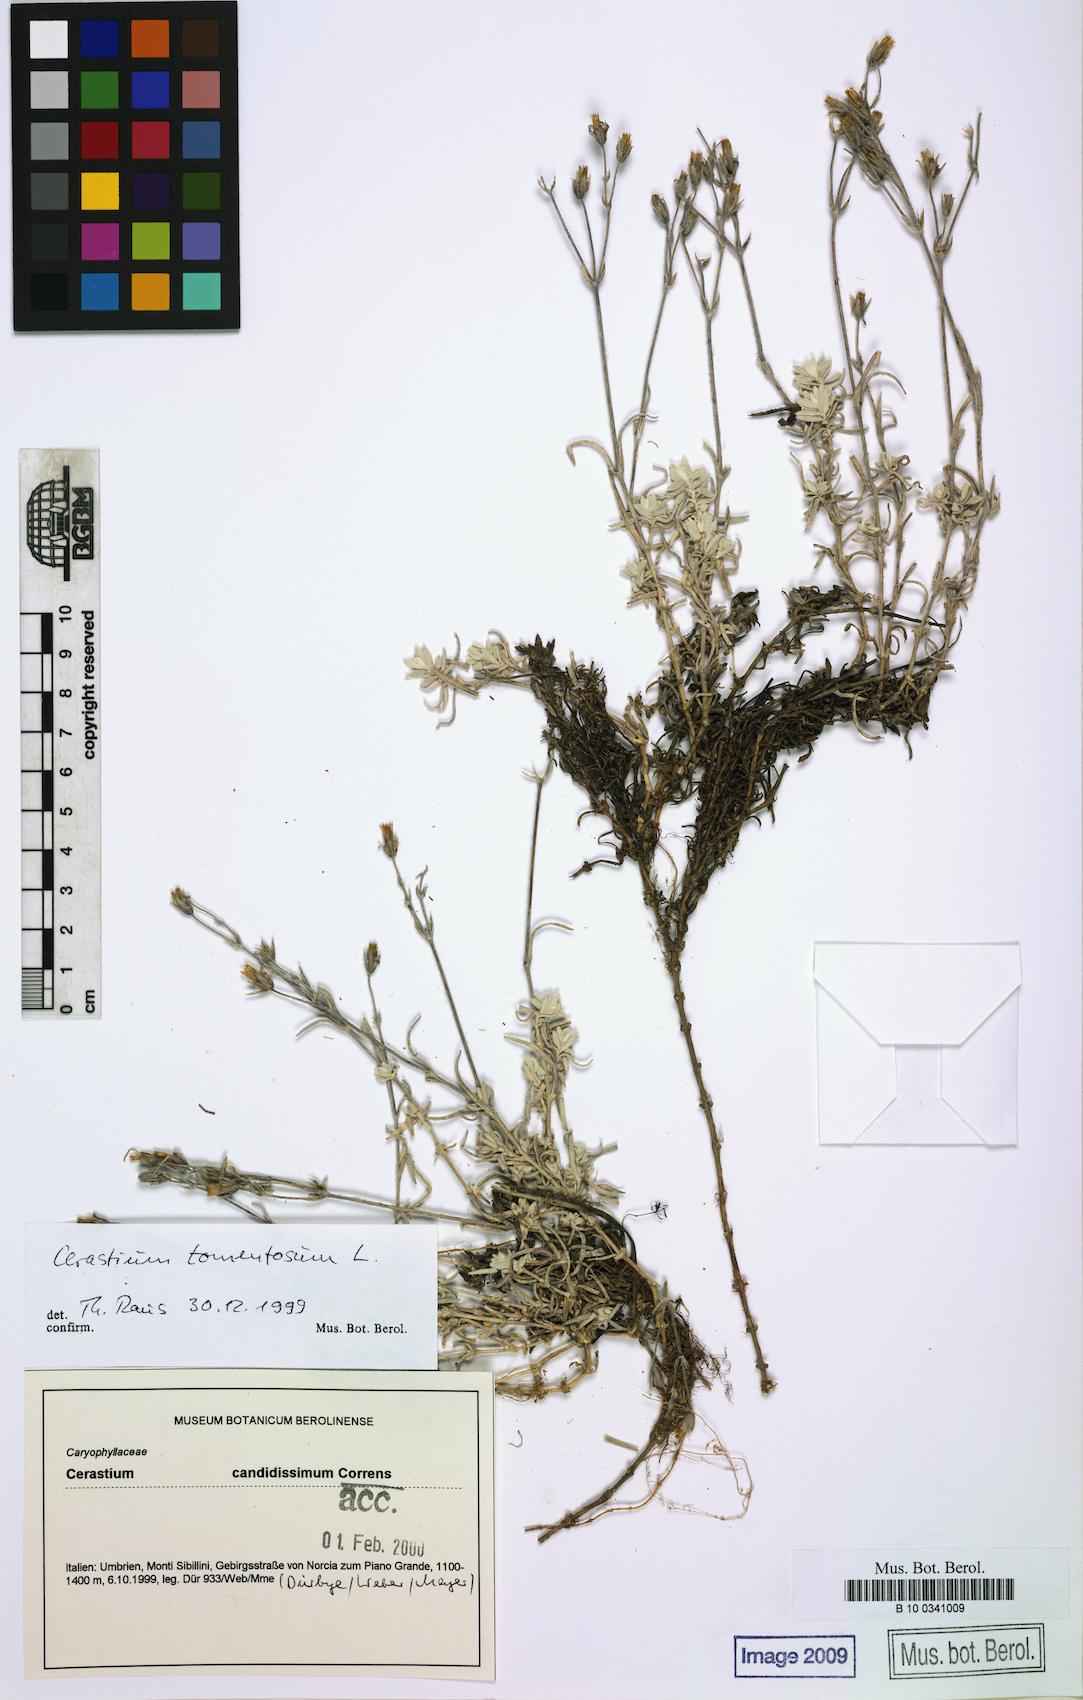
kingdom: Plantae
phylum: Tracheophyta
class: Magnoliopsida
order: Caryophyllales
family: Caryophyllaceae
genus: Cerastium
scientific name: Cerastium tomentosum
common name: Snow-in-summer
